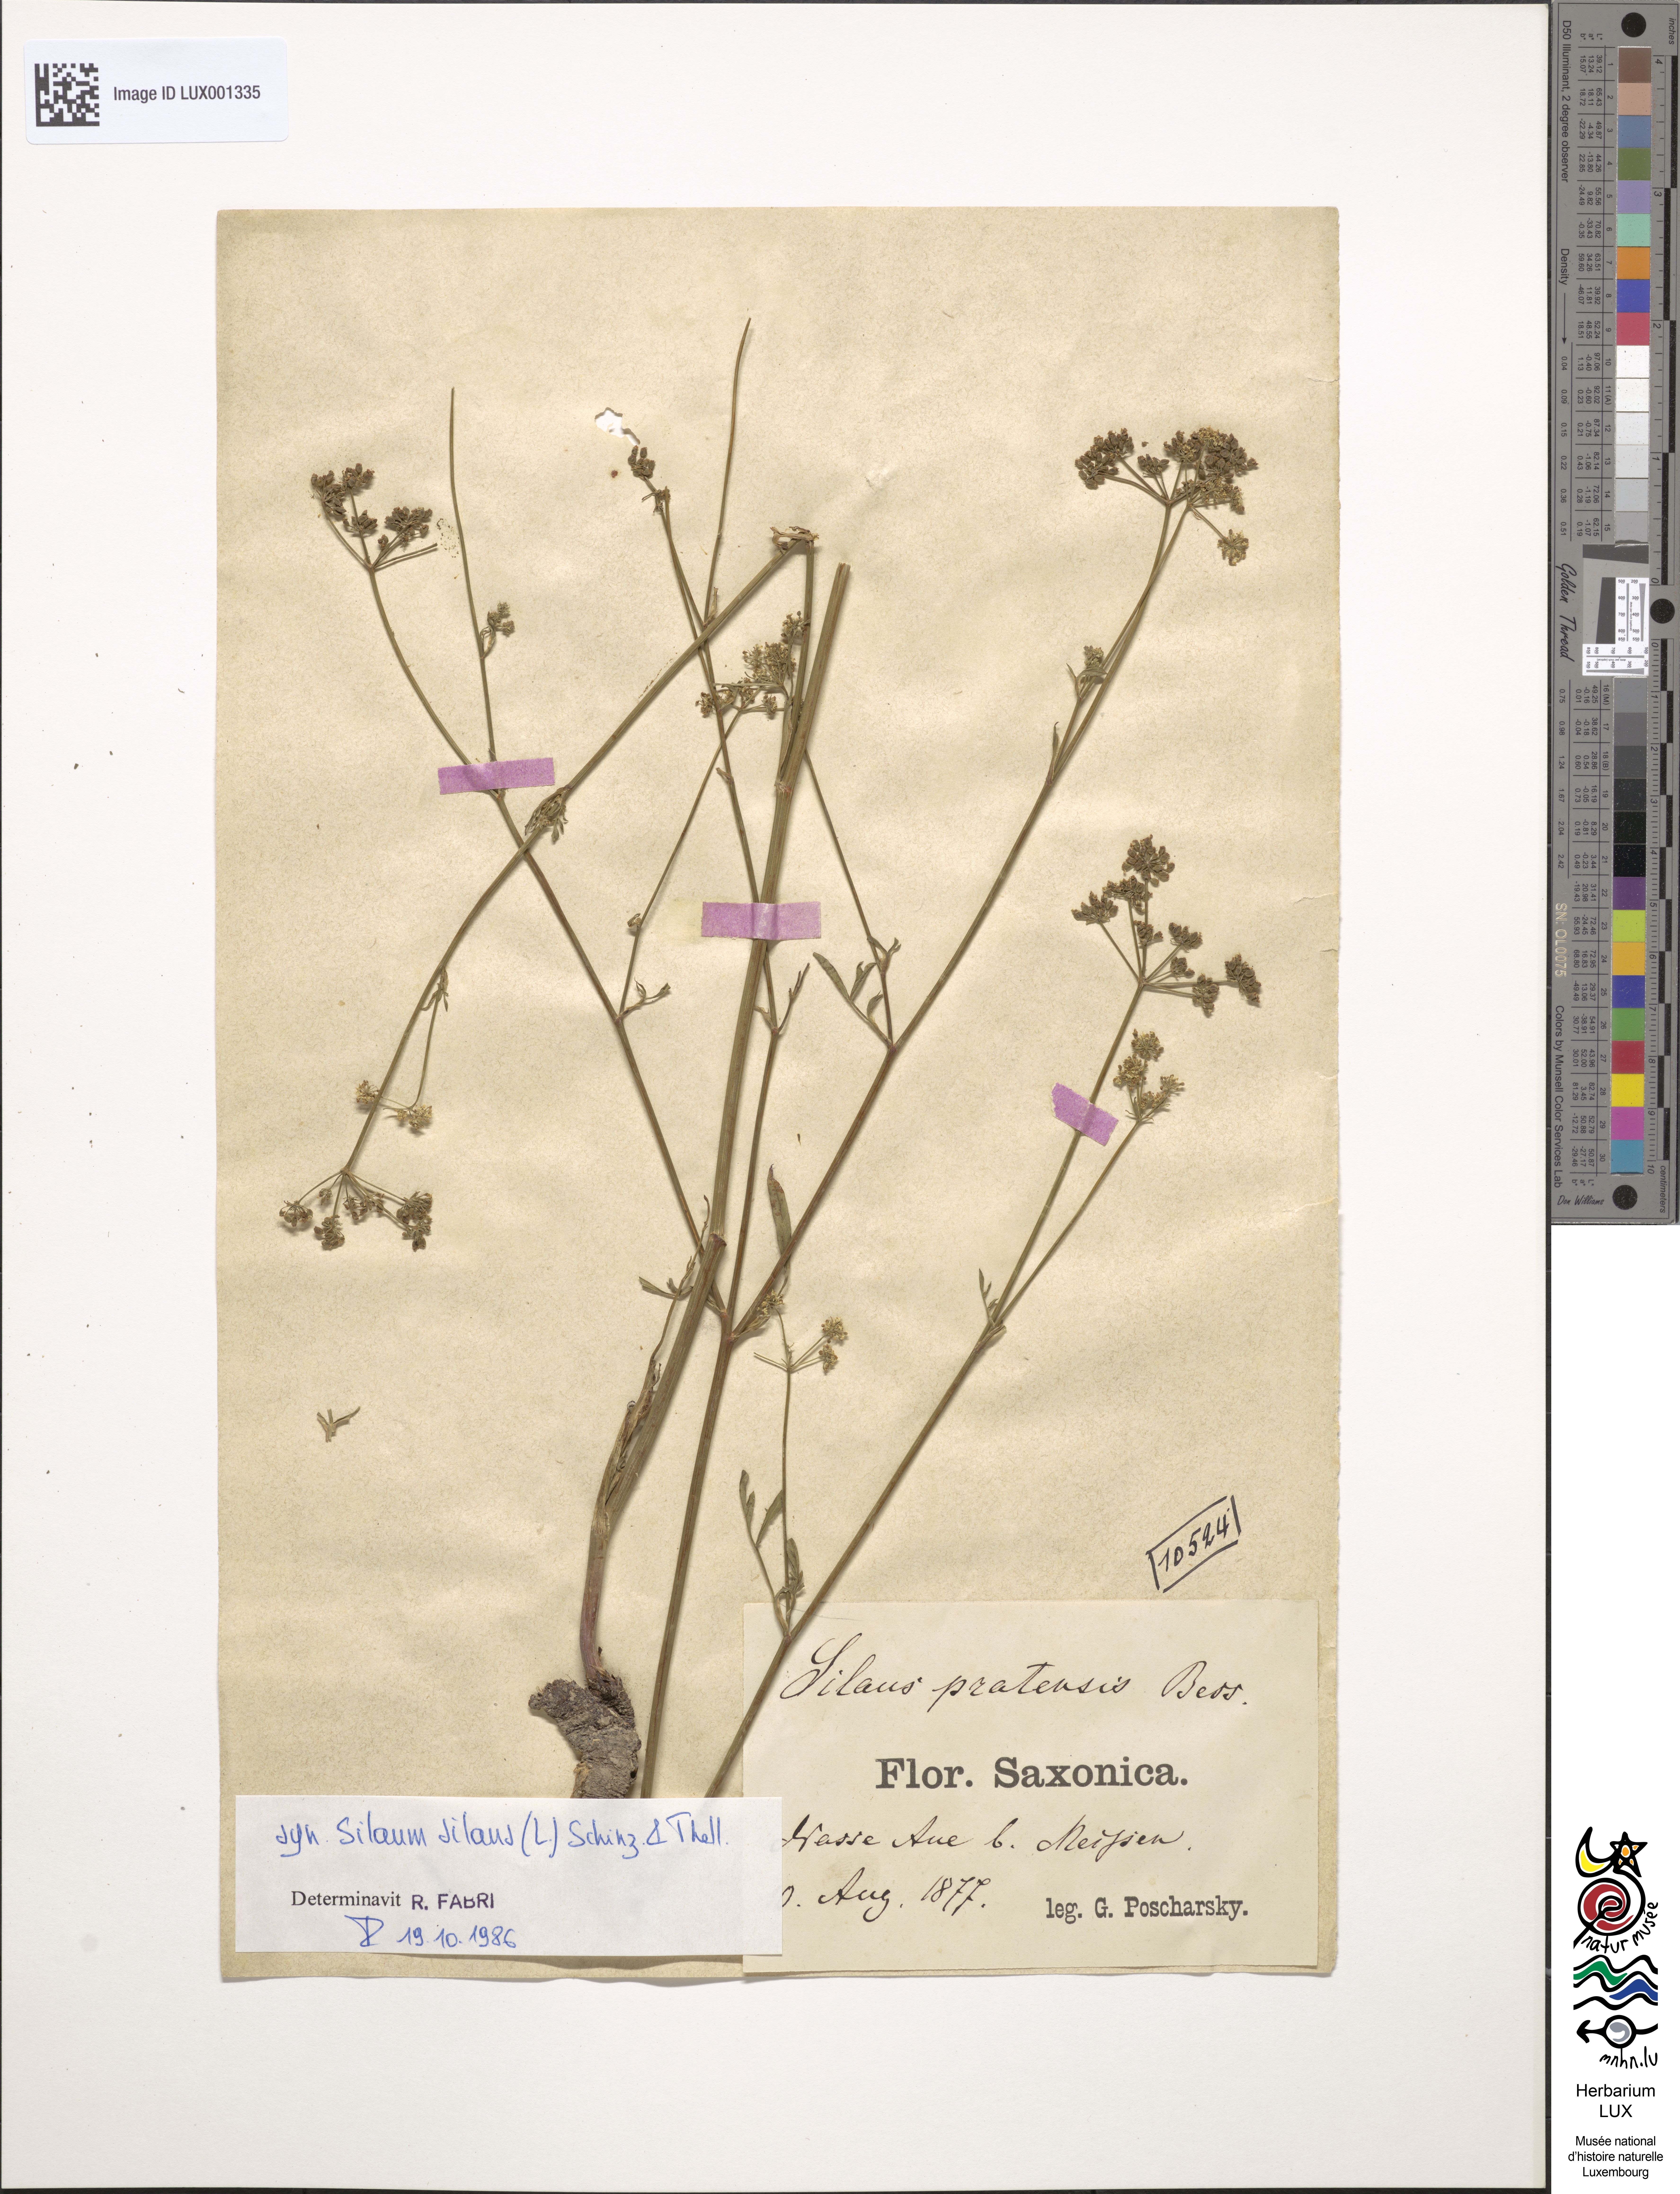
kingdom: Plantae
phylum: Tracheophyta
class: Magnoliopsida
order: Apiales
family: Apiaceae
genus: Silaum
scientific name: Silaum silaus
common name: Pepper-saxifrage
